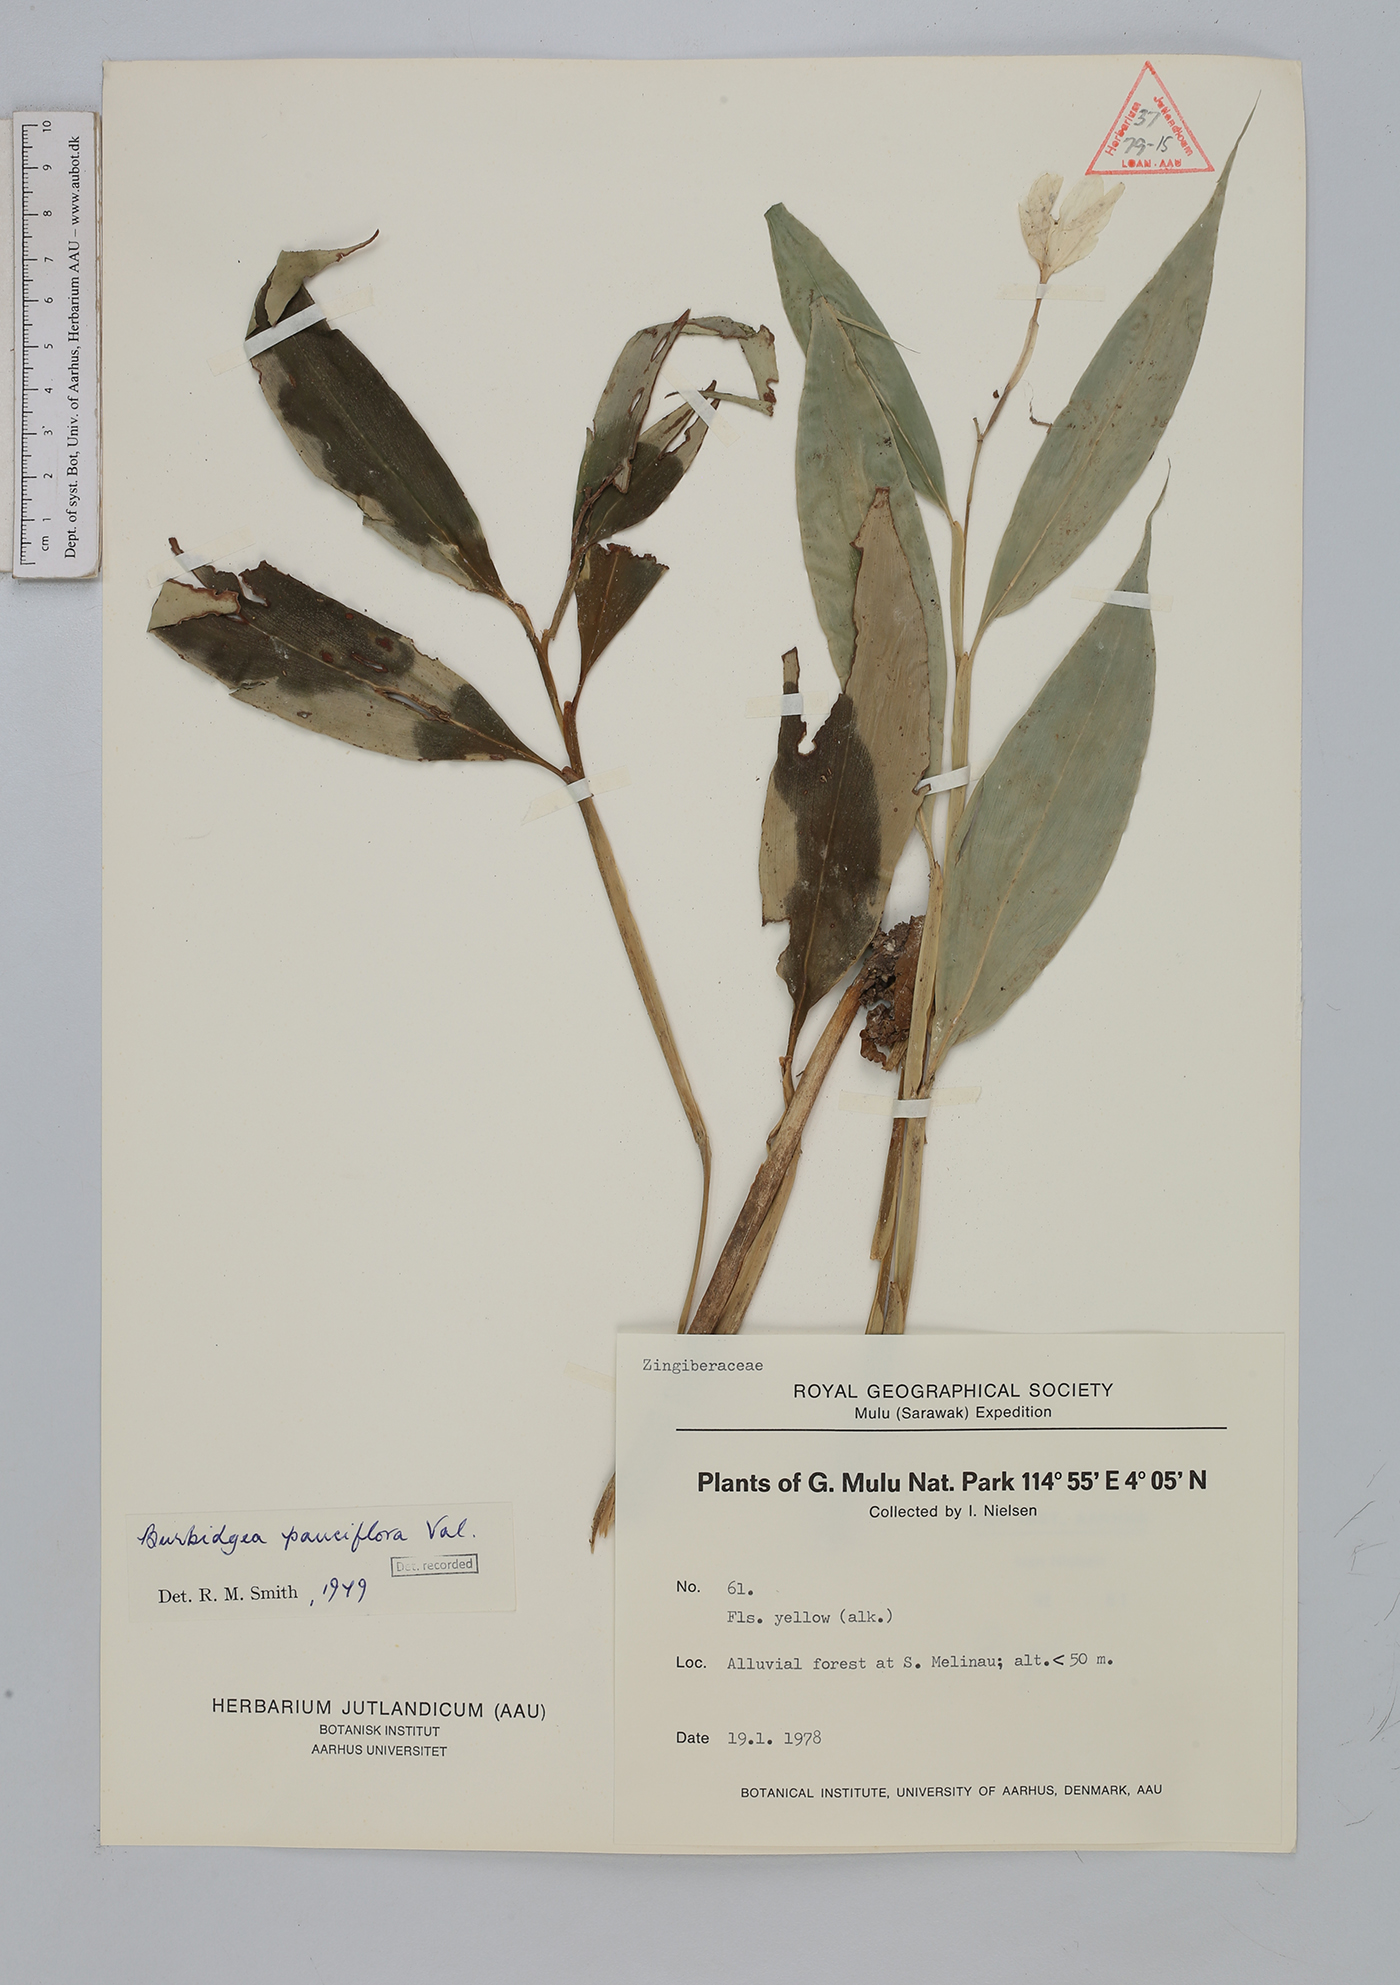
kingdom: Plantae
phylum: Tracheophyta
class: Liliopsida
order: Zingiberales
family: Zingiberaceae
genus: Burbidgea
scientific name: Burbidgea pauciflora
